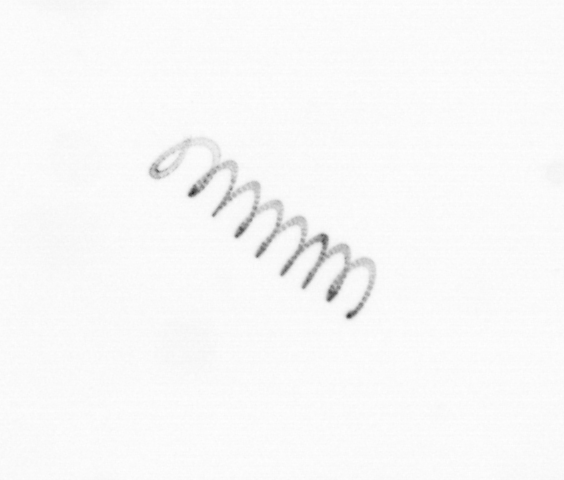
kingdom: Chromista
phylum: Ochrophyta
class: Bacillariophyceae
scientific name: Bacillariophyceae
